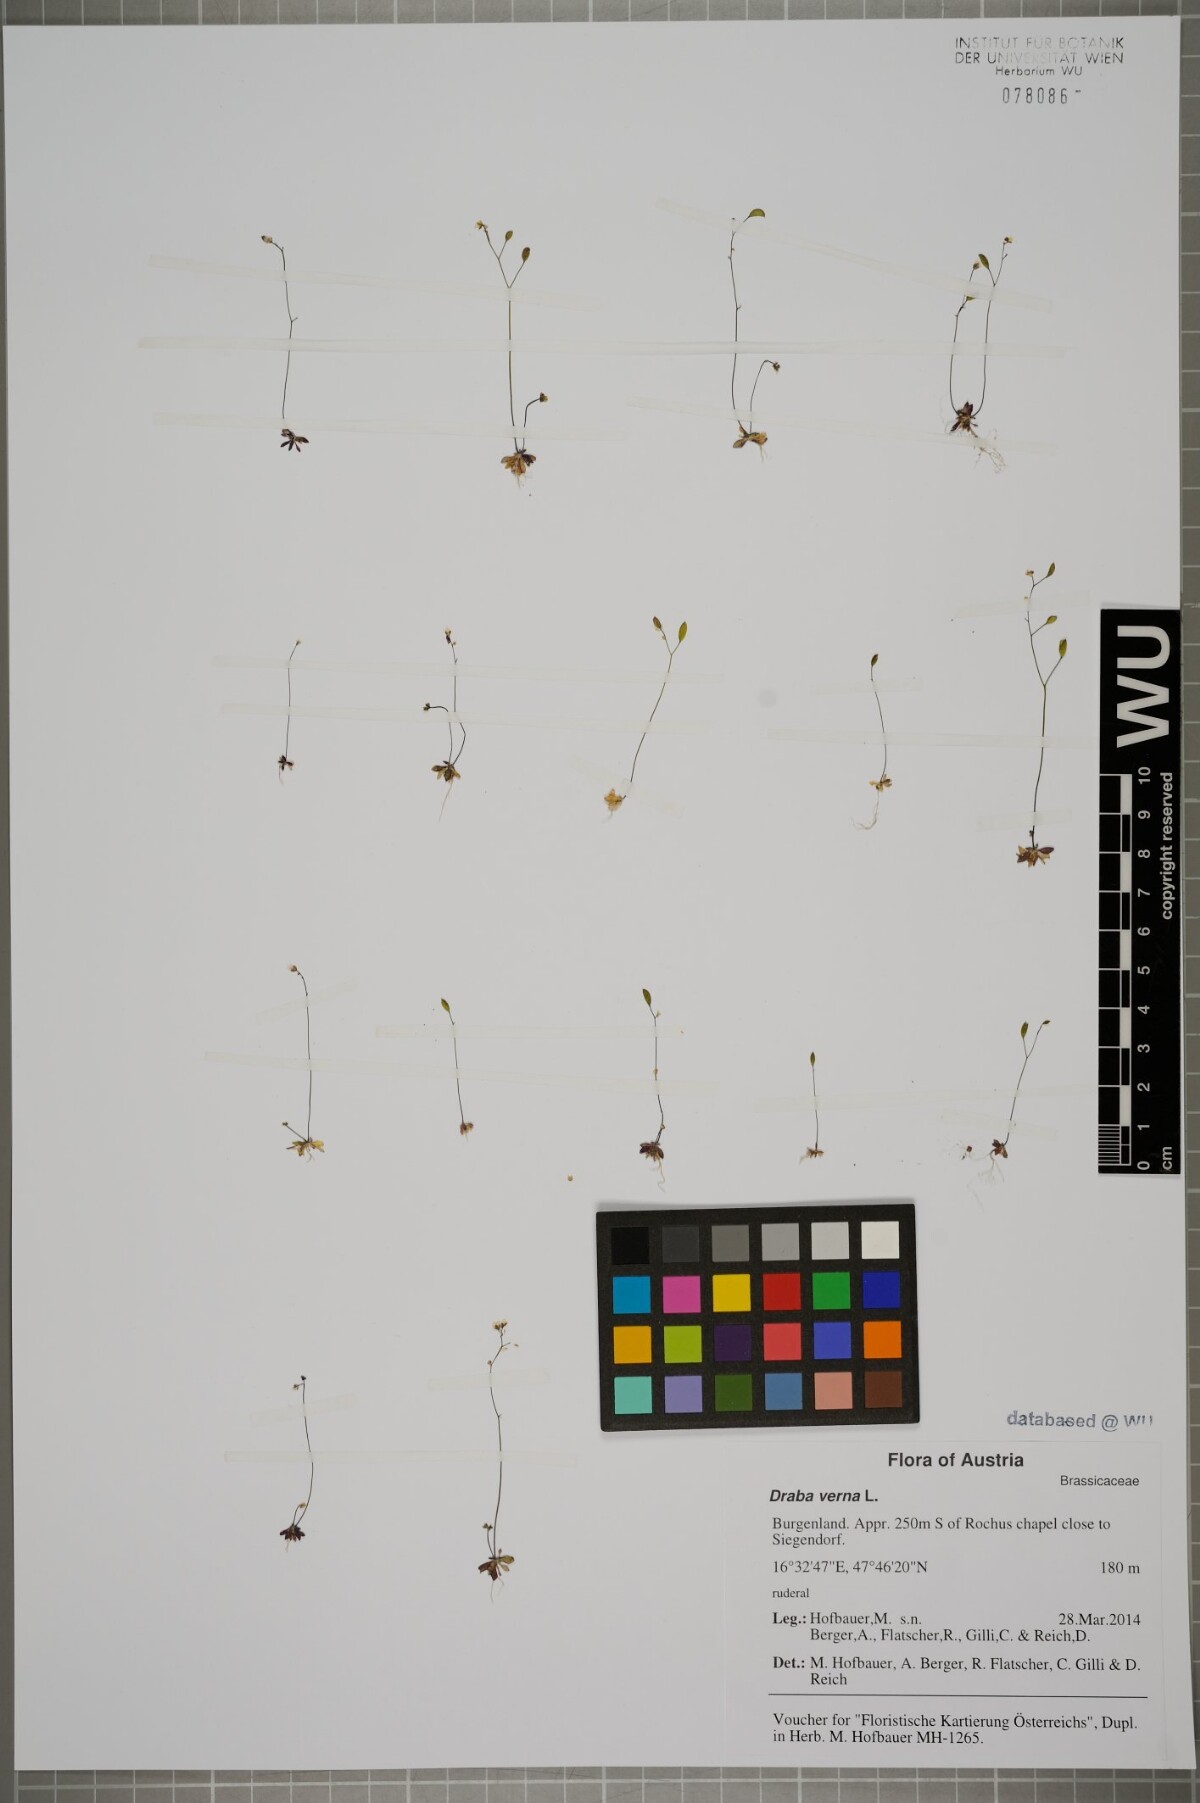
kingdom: Plantae
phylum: Tracheophyta
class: Magnoliopsida
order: Brassicales
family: Brassicaceae
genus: Draba
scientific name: Draba verna
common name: Spring draba
